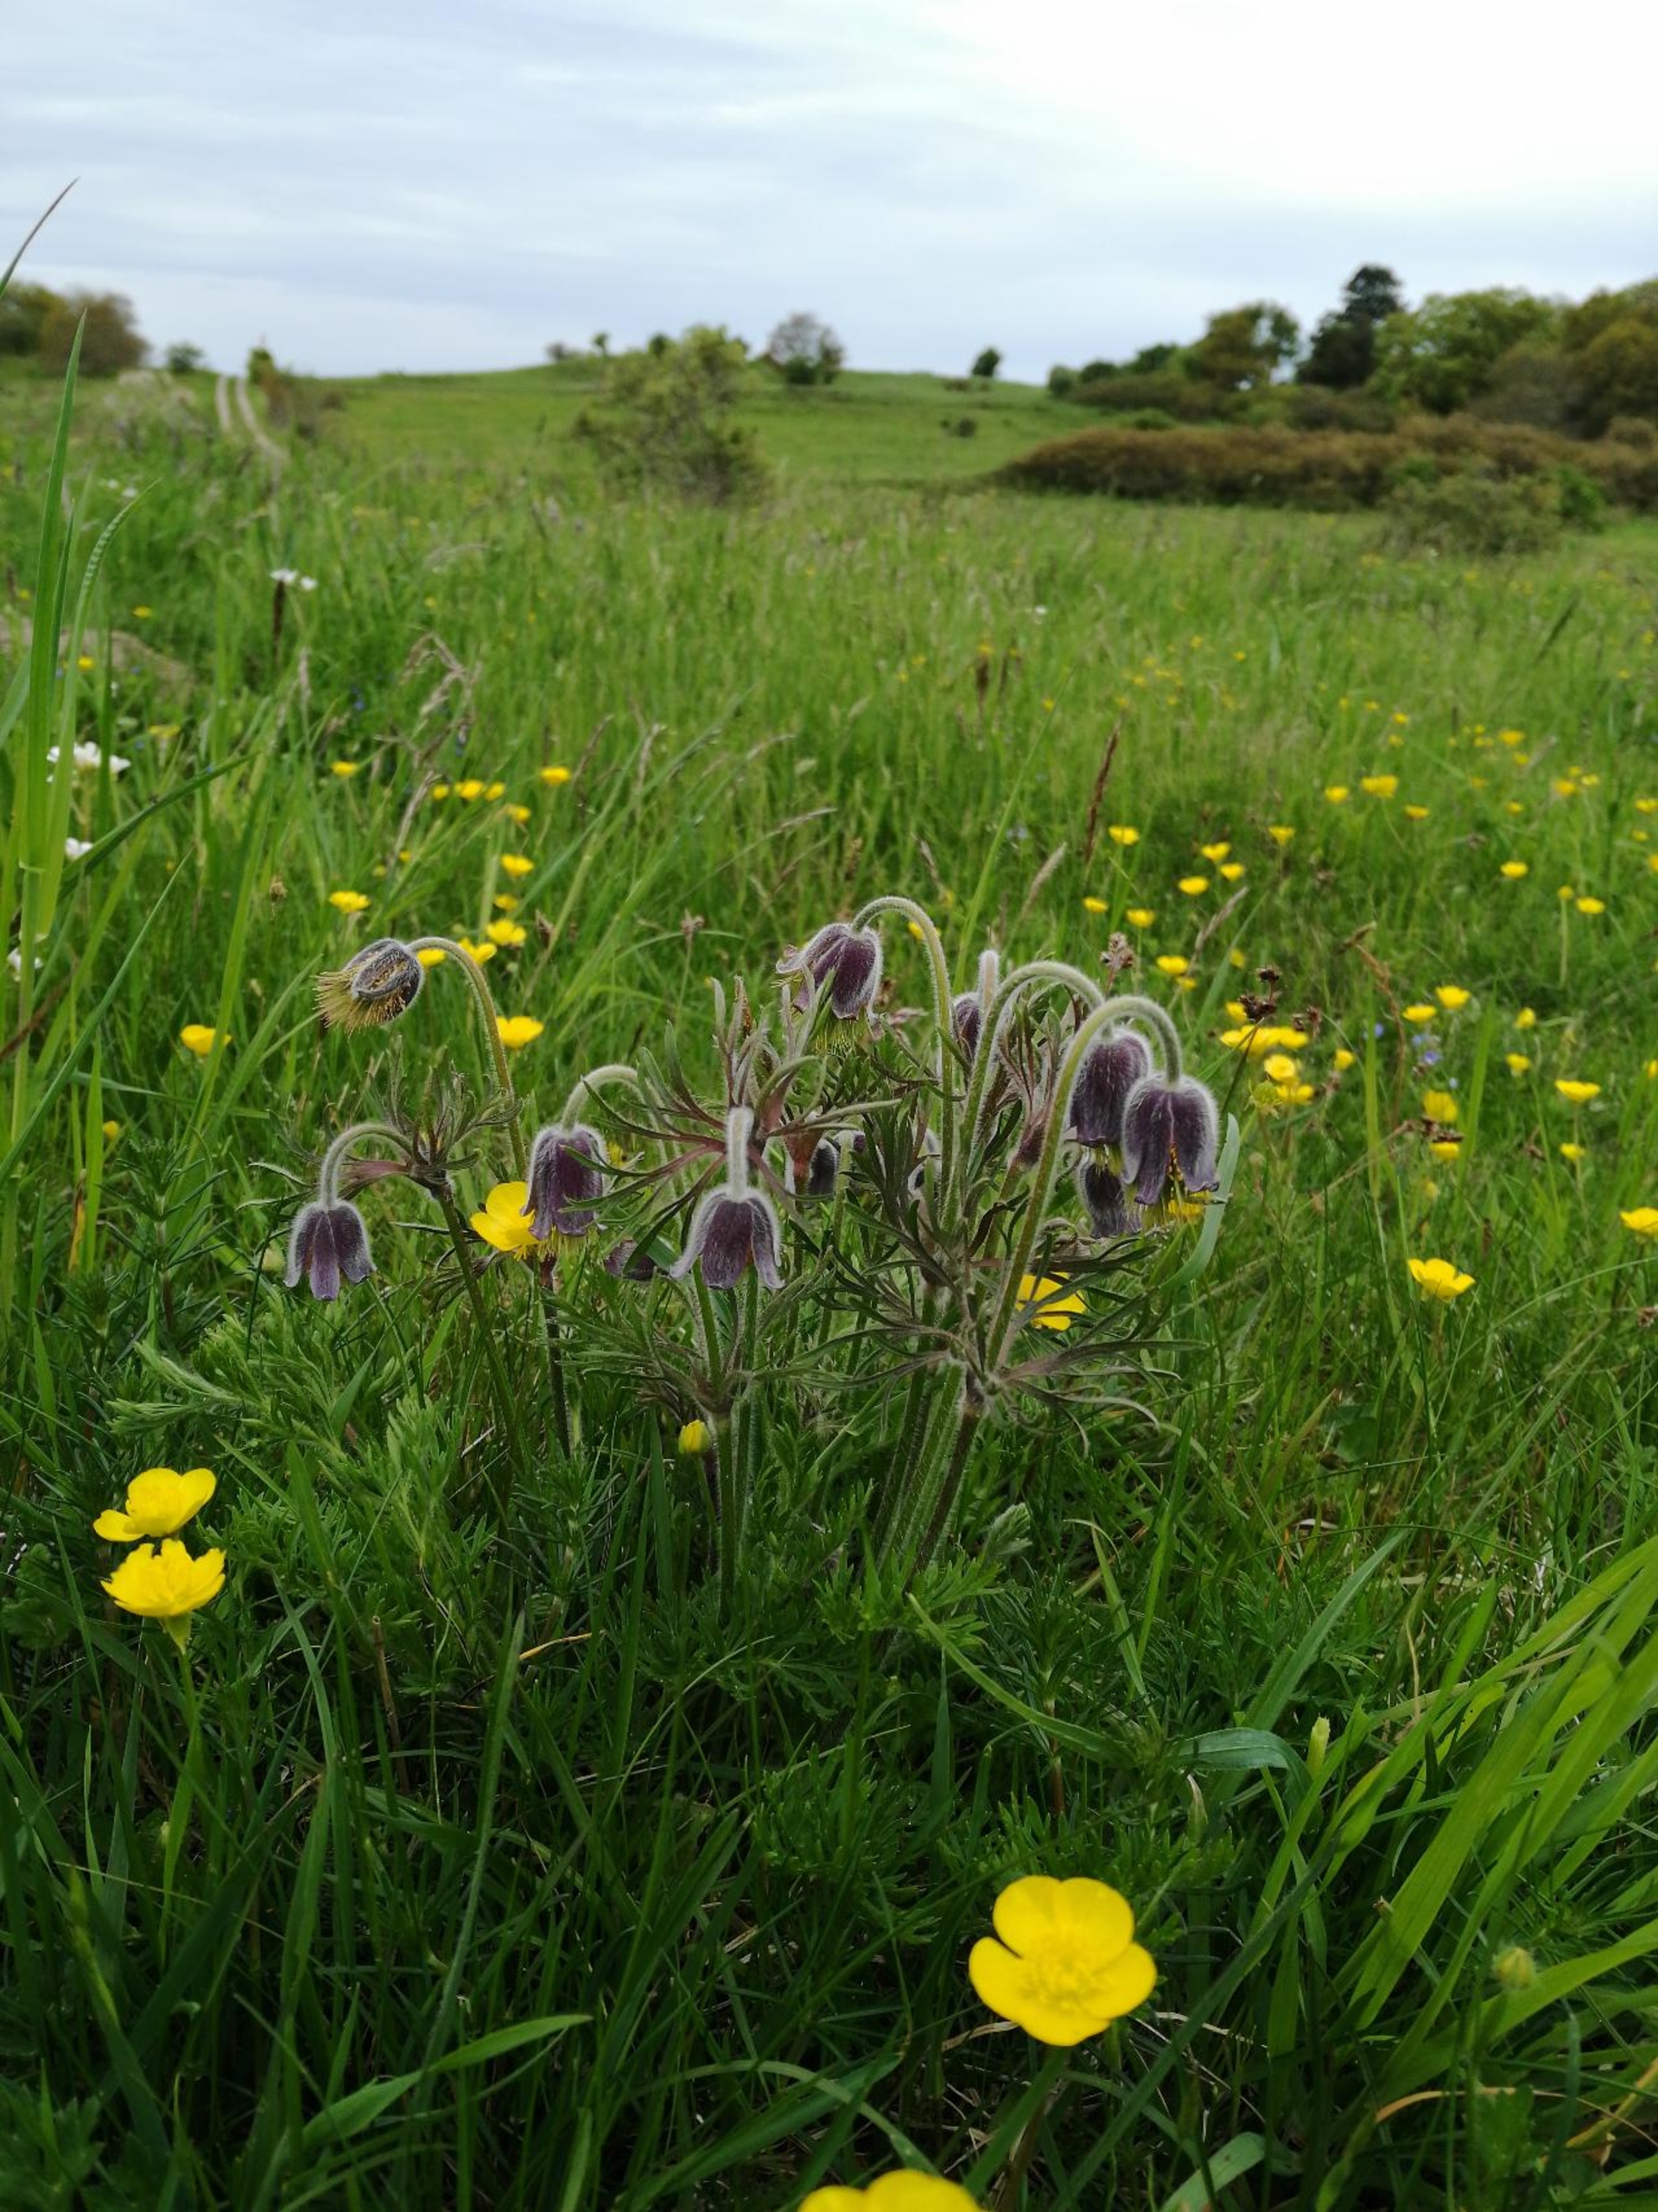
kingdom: Plantae
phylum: Tracheophyta
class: Magnoliopsida
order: Ranunculales
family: Ranunculaceae
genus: Pulsatilla
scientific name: Pulsatilla pratensis
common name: Nikkende kobjælde
